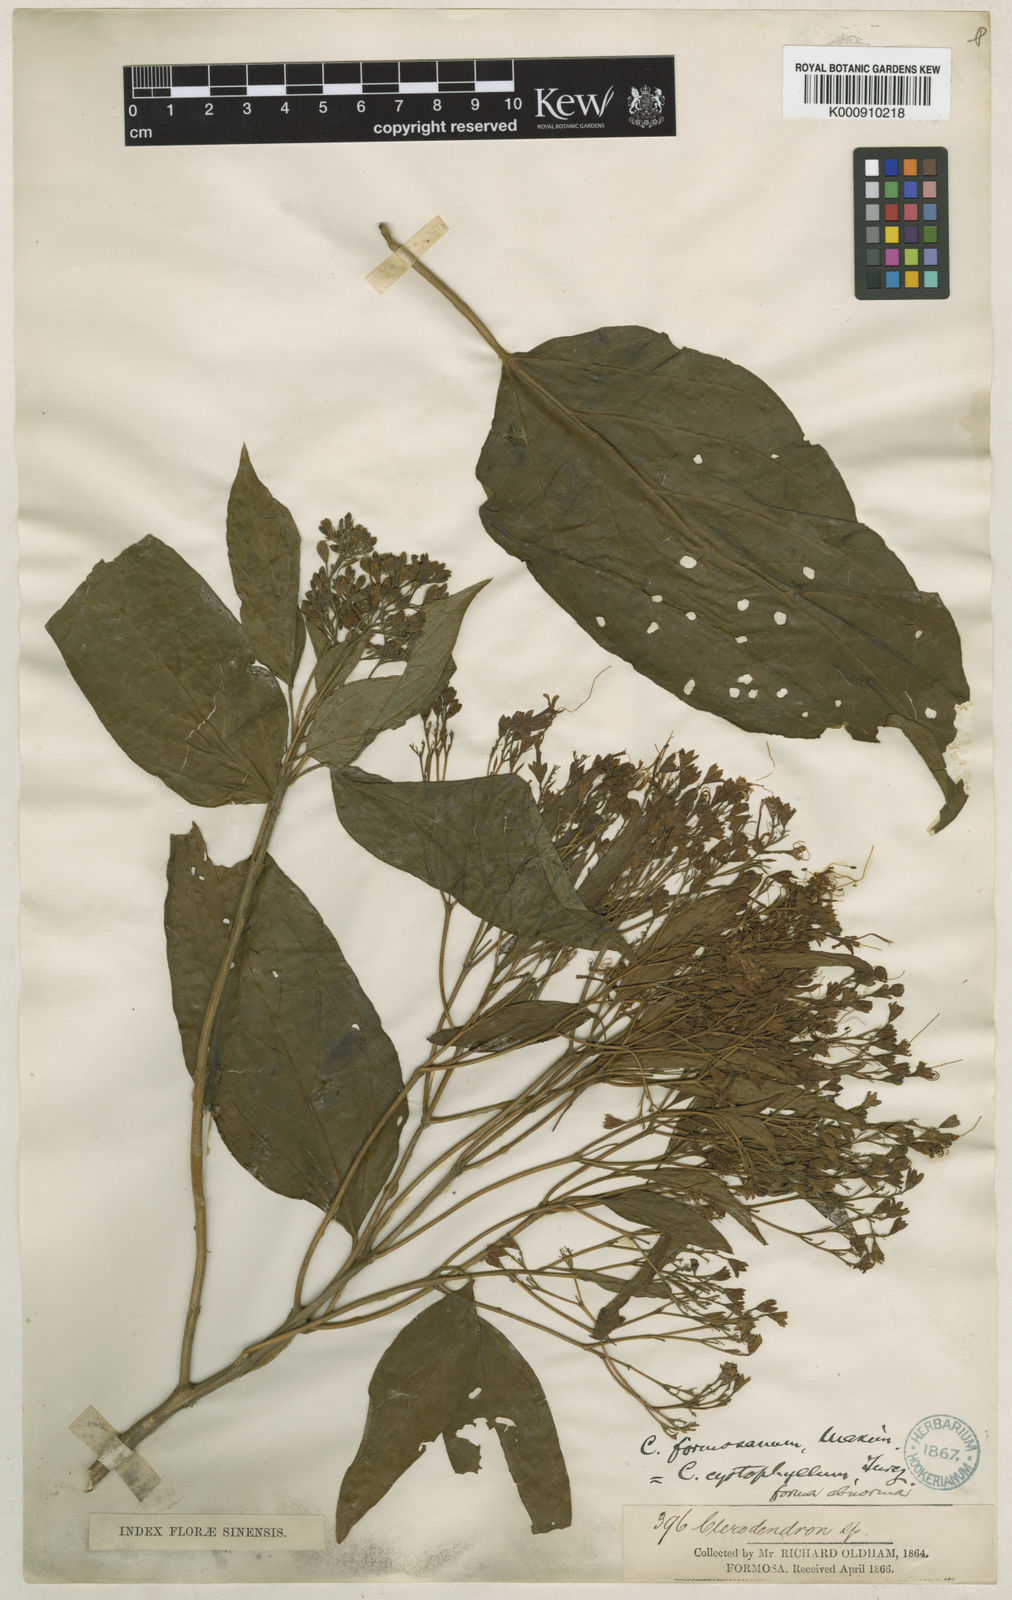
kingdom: Plantae
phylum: Tracheophyta
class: Magnoliopsida
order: Lamiales
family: Lamiaceae
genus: Clerodendrum
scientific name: Clerodendrum cyrtophyllum
